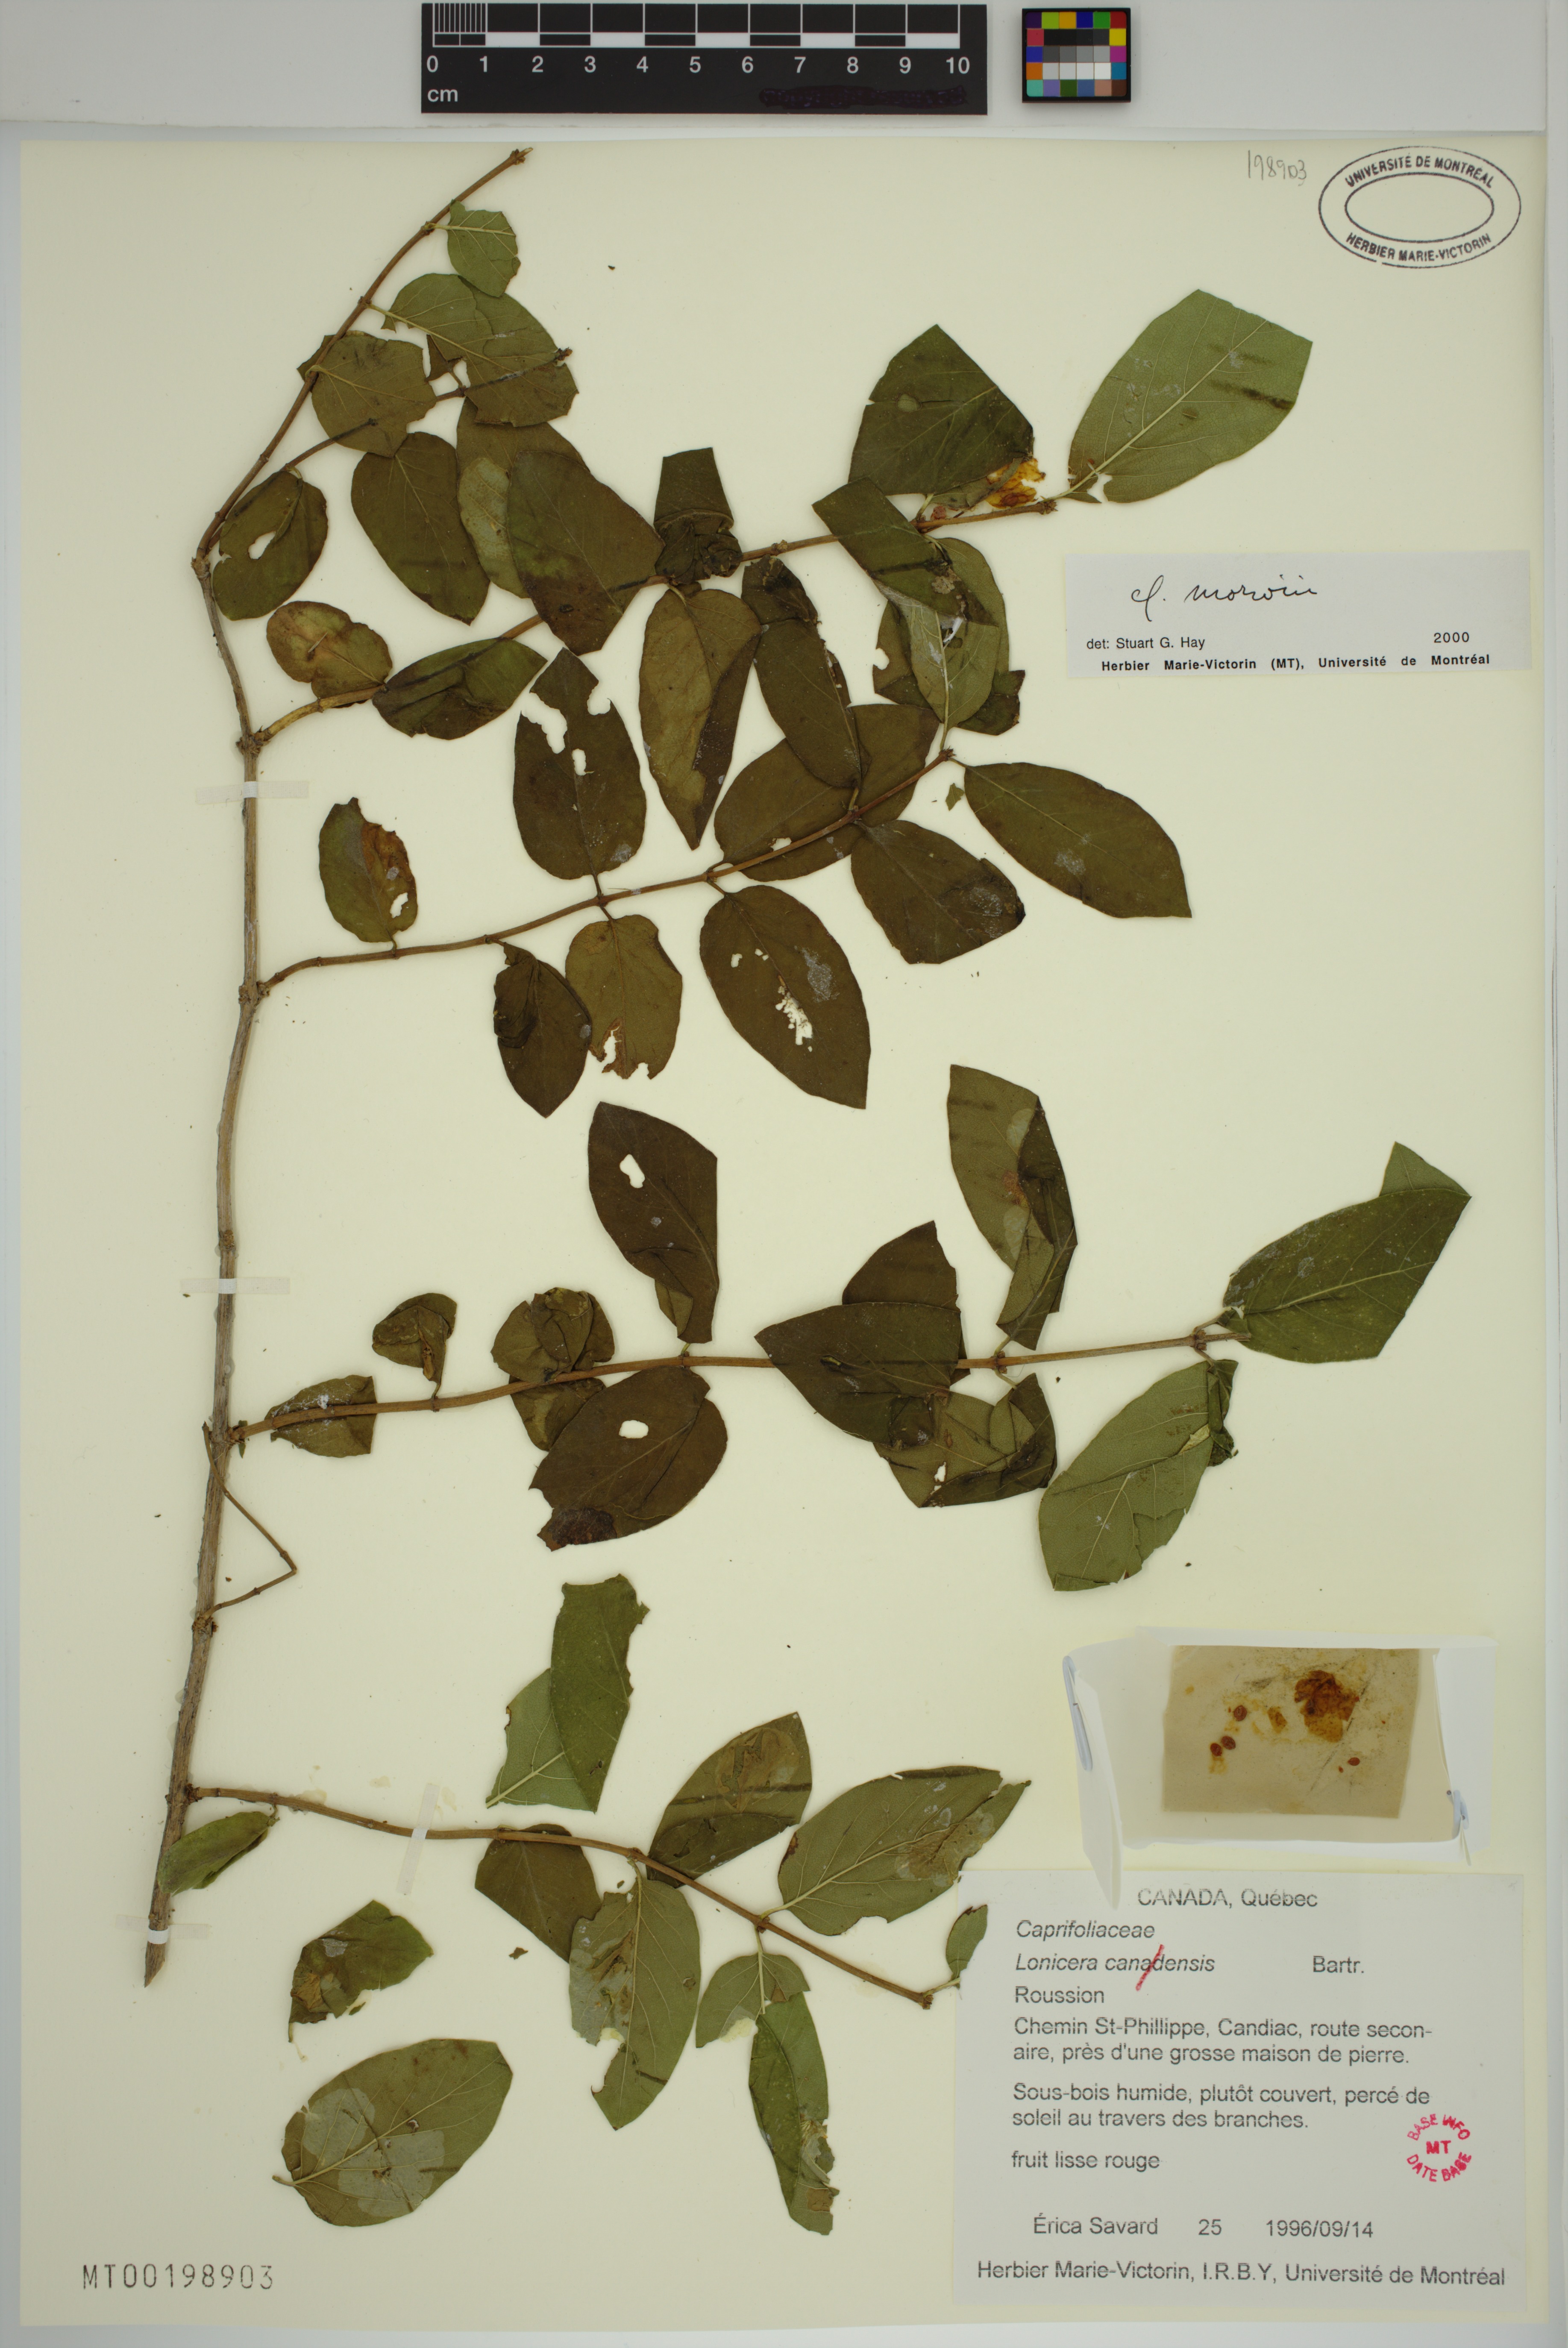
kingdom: Plantae
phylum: Tracheophyta
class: Magnoliopsida
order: Dipsacales
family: Caprifoliaceae
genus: Lonicera
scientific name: Lonicera tatarica
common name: Tatarian honeysuckle
